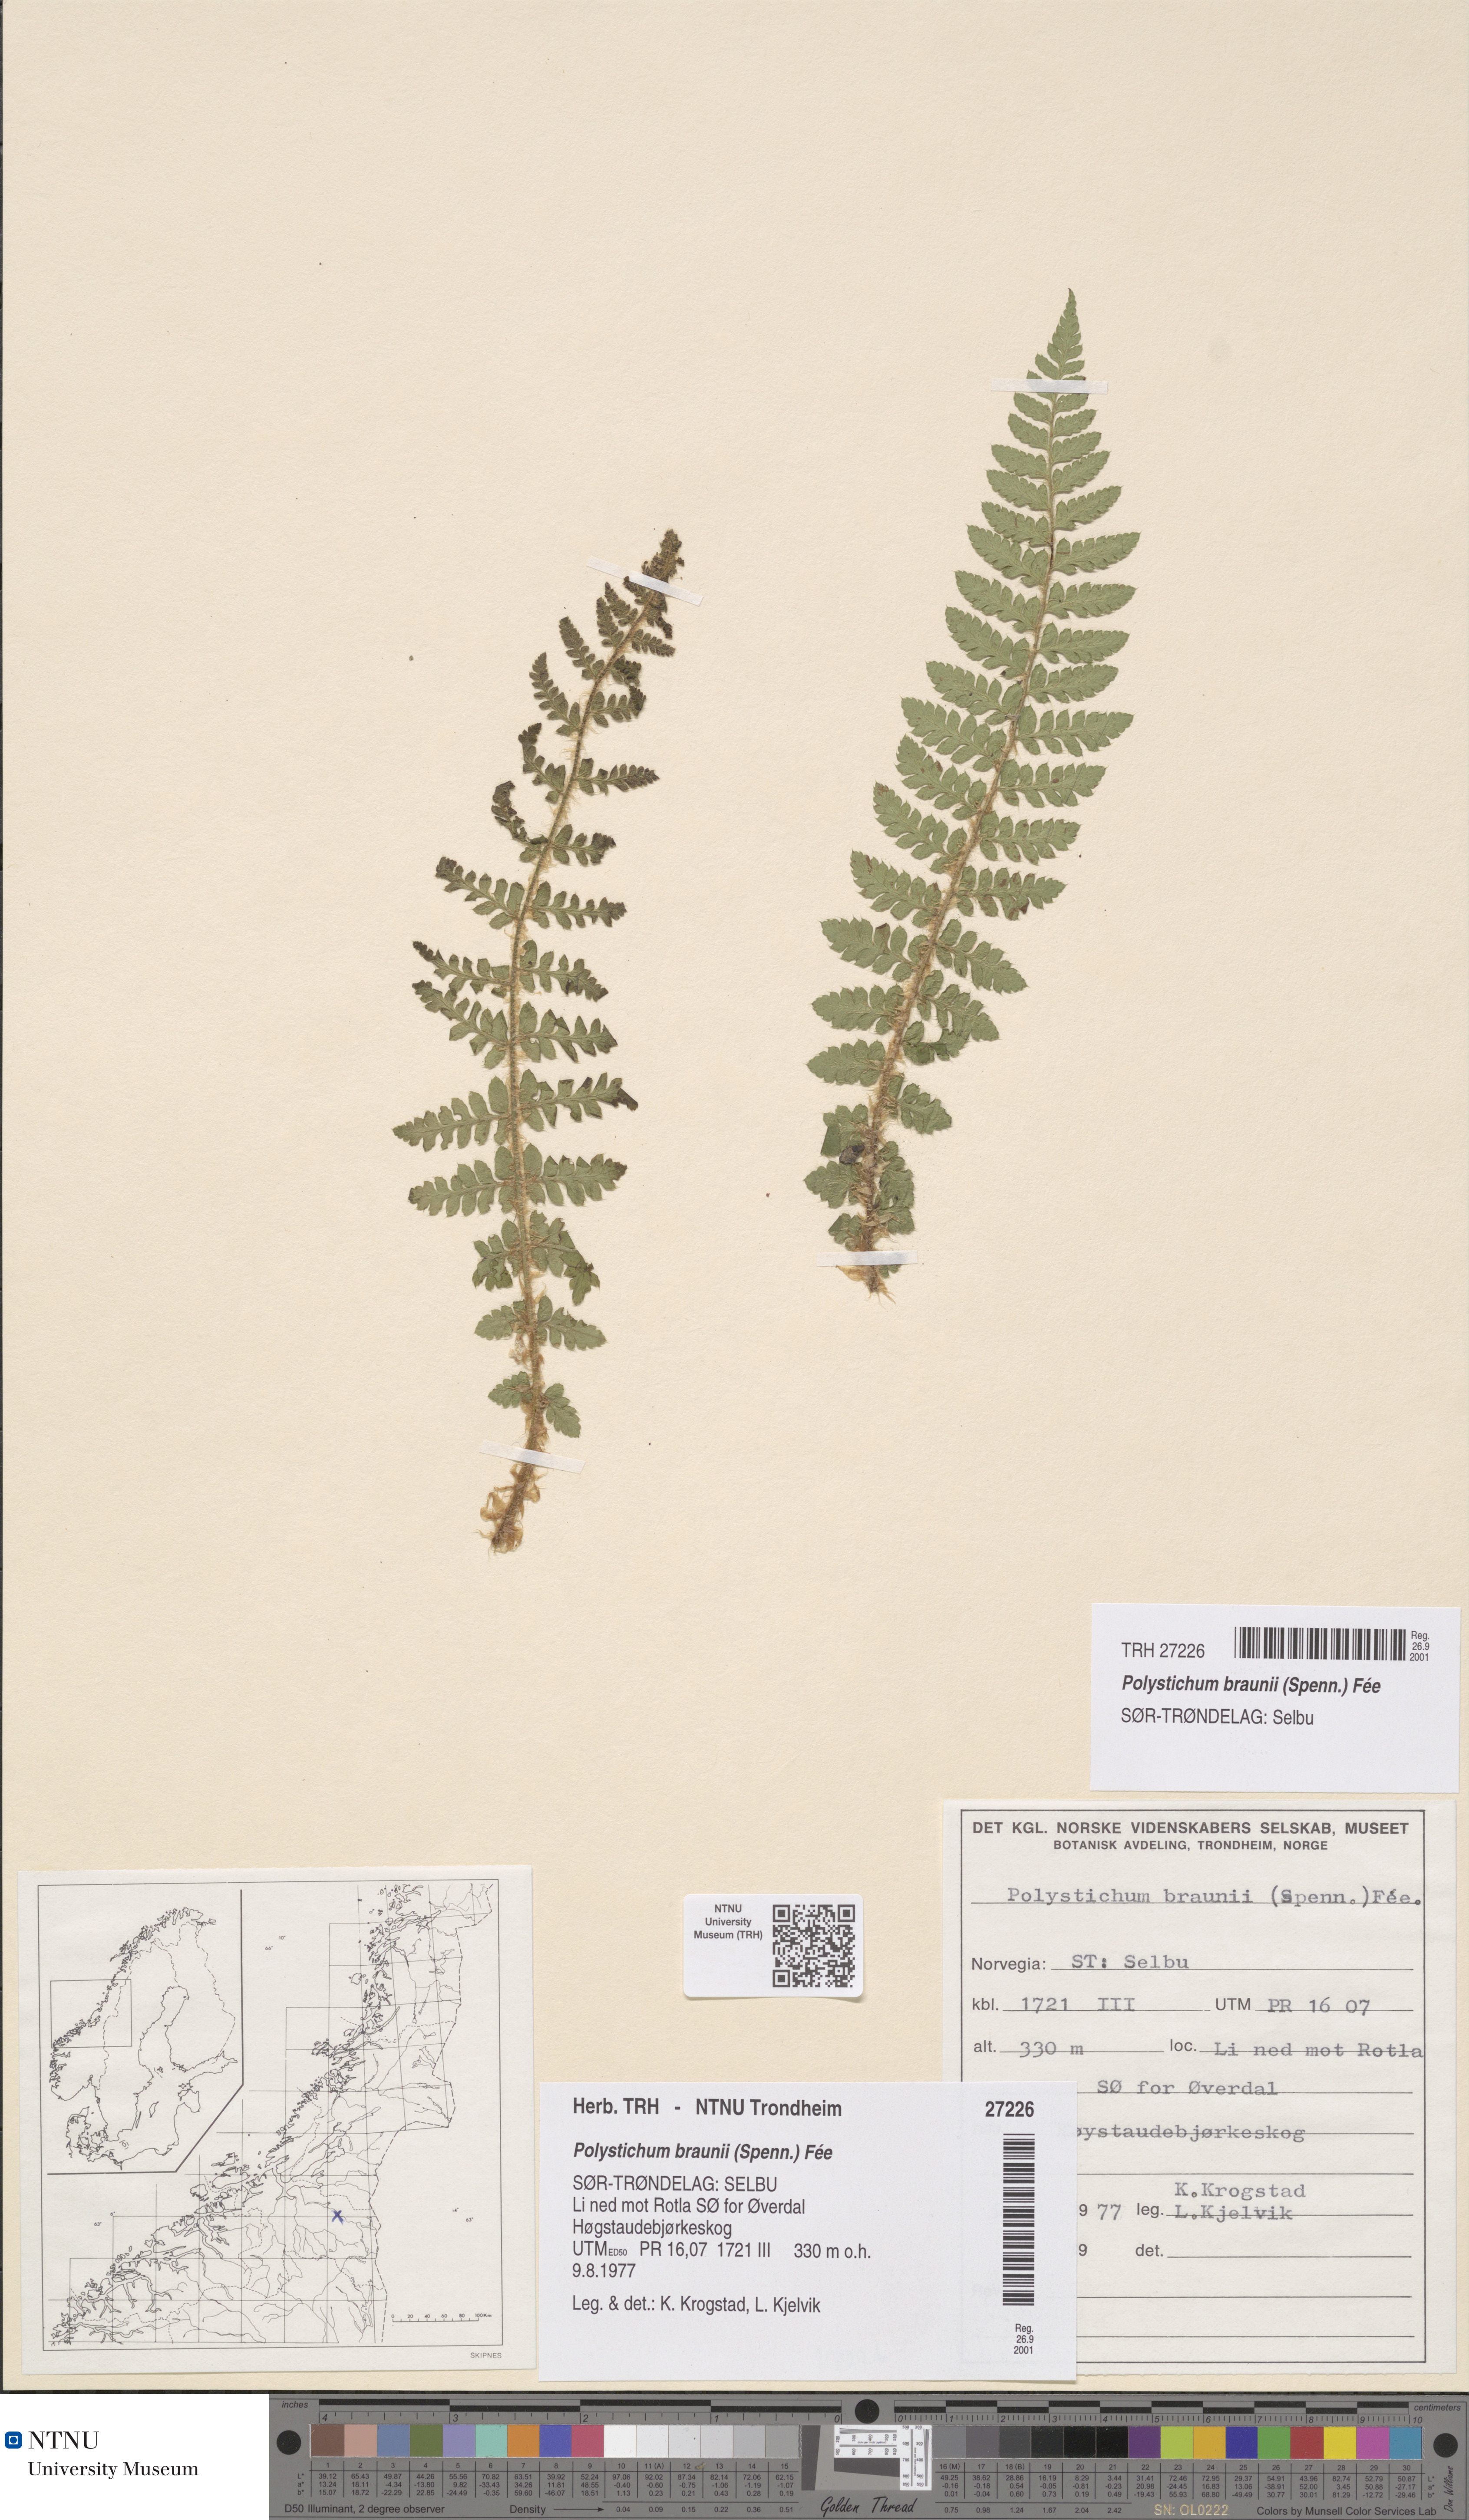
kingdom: Plantae
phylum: Tracheophyta
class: Polypodiopsida
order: Polypodiales
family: Dryopteridaceae
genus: Polystichum
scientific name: Polystichum braunii
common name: Braun's holly fern
